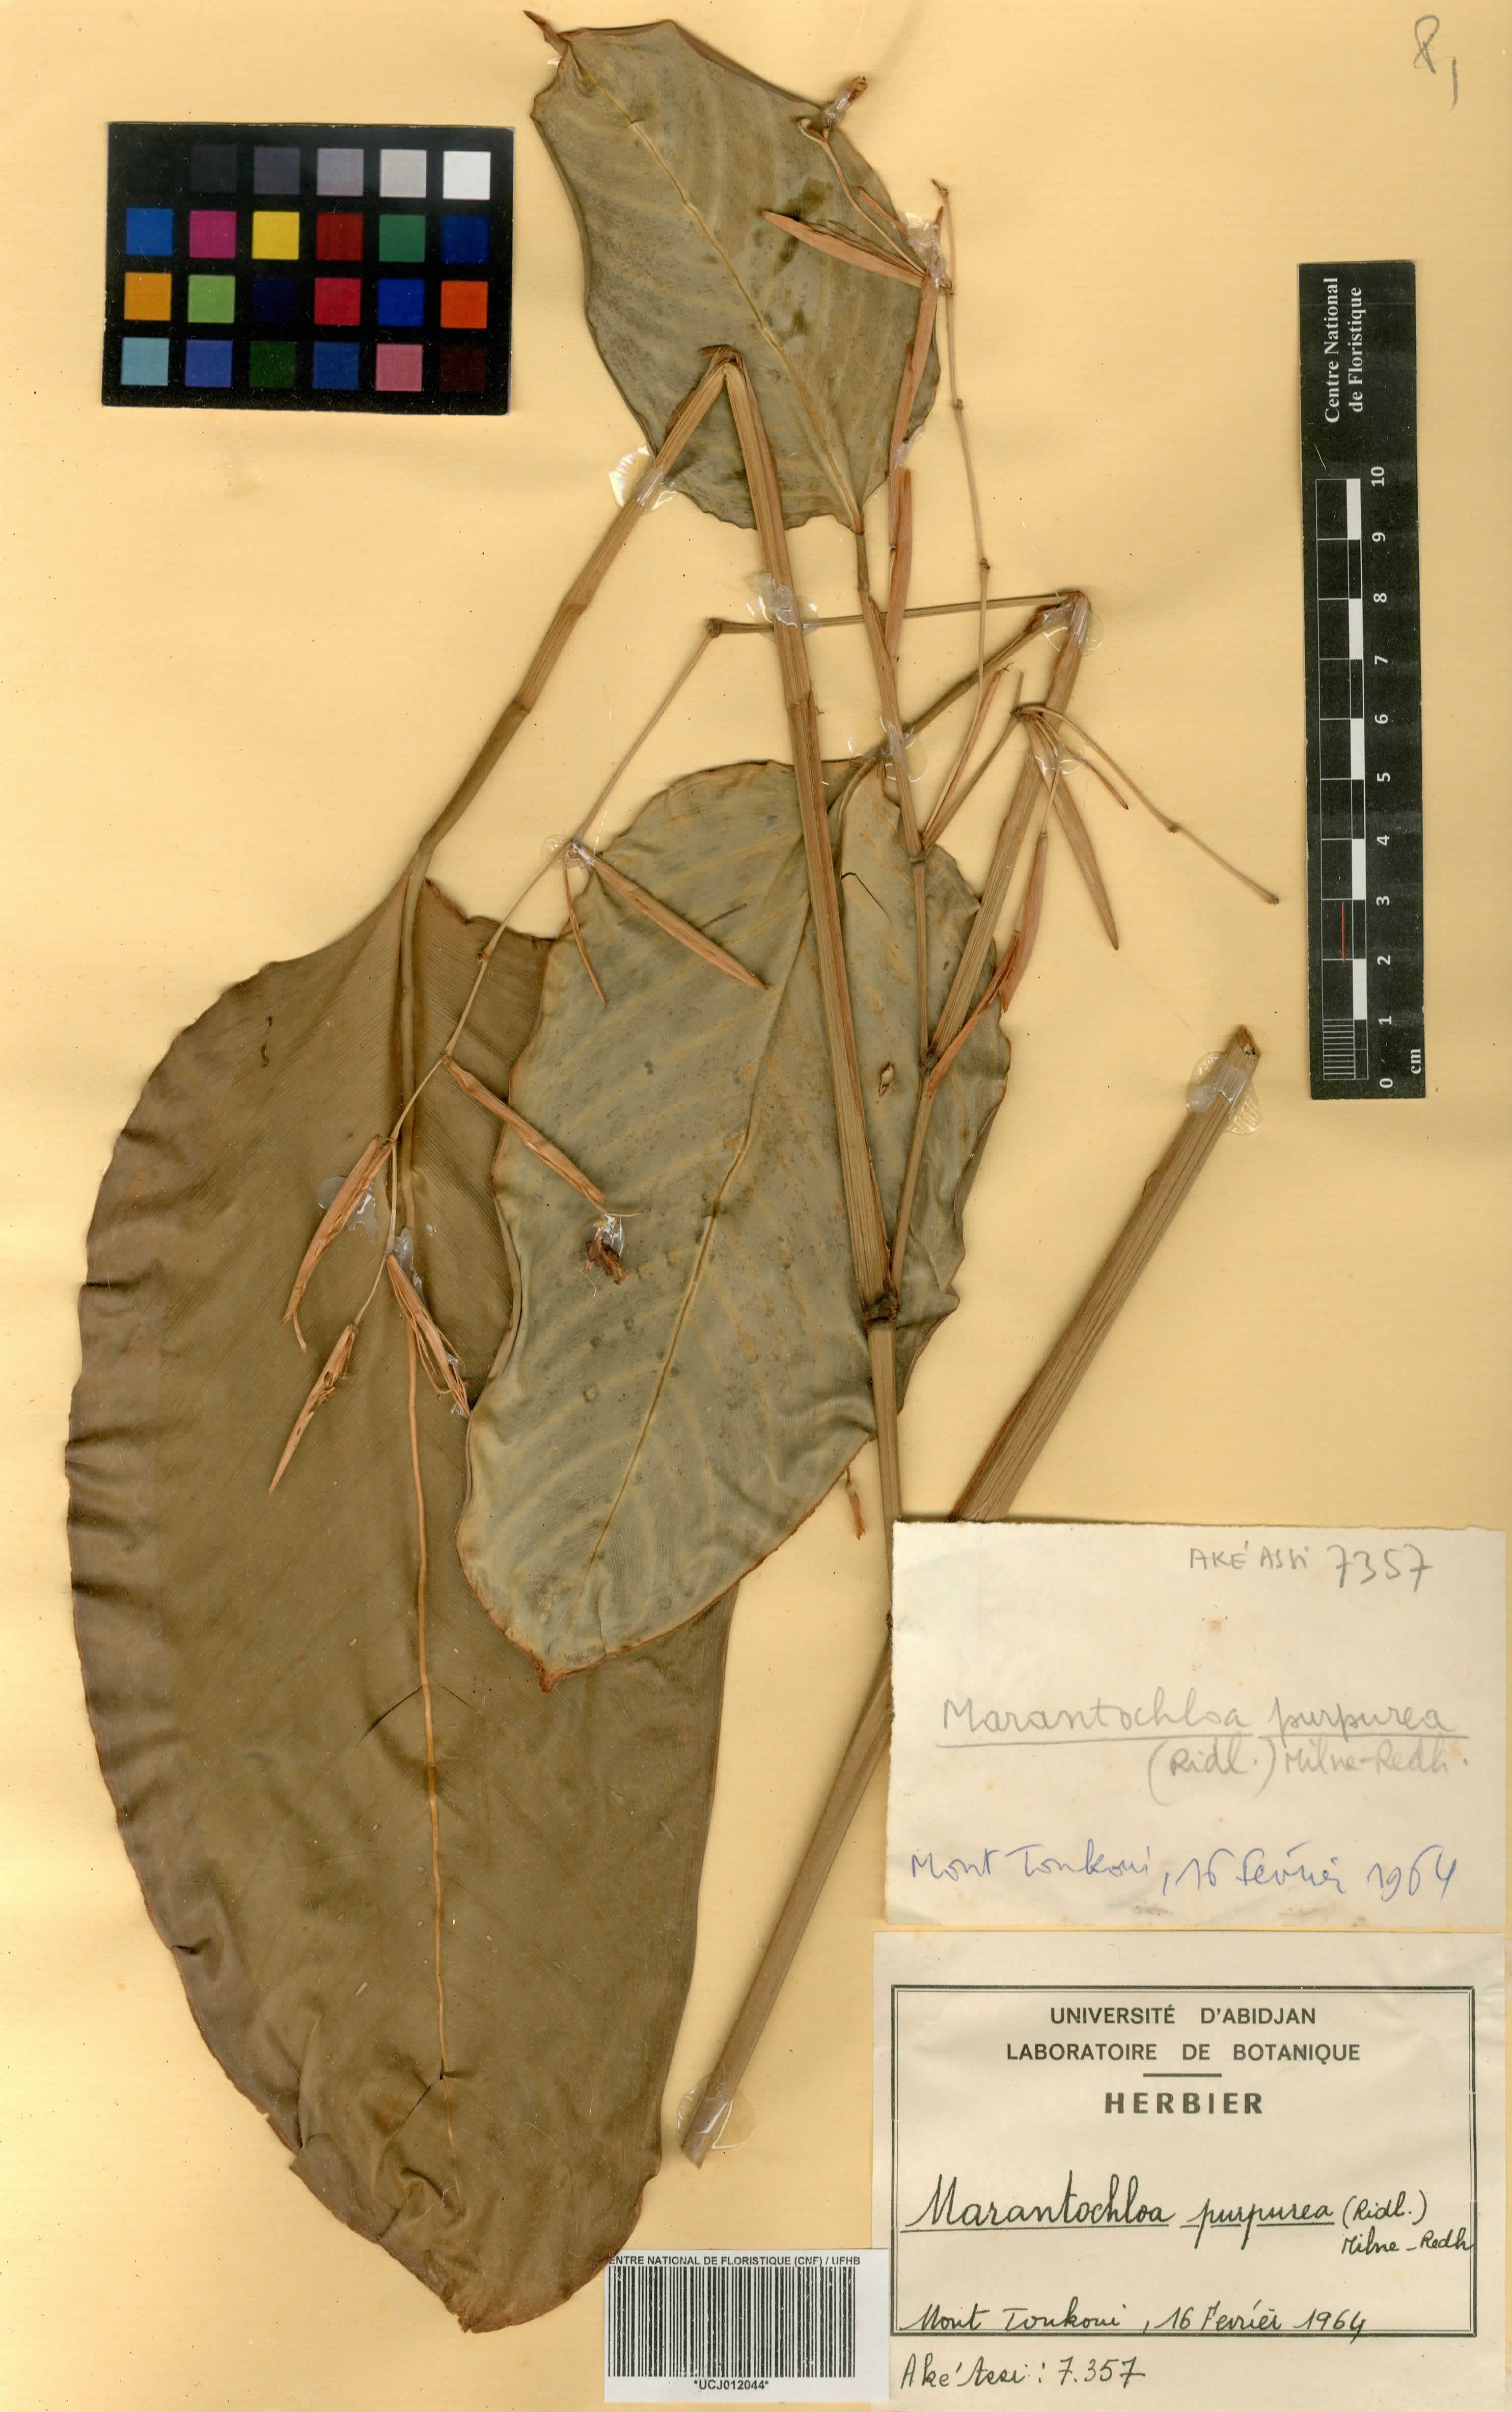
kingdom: Plantae
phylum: Tracheophyta
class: Liliopsida
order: Zingiberales
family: Marantaceae
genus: Marantochloa
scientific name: Marantochloa purpurea
